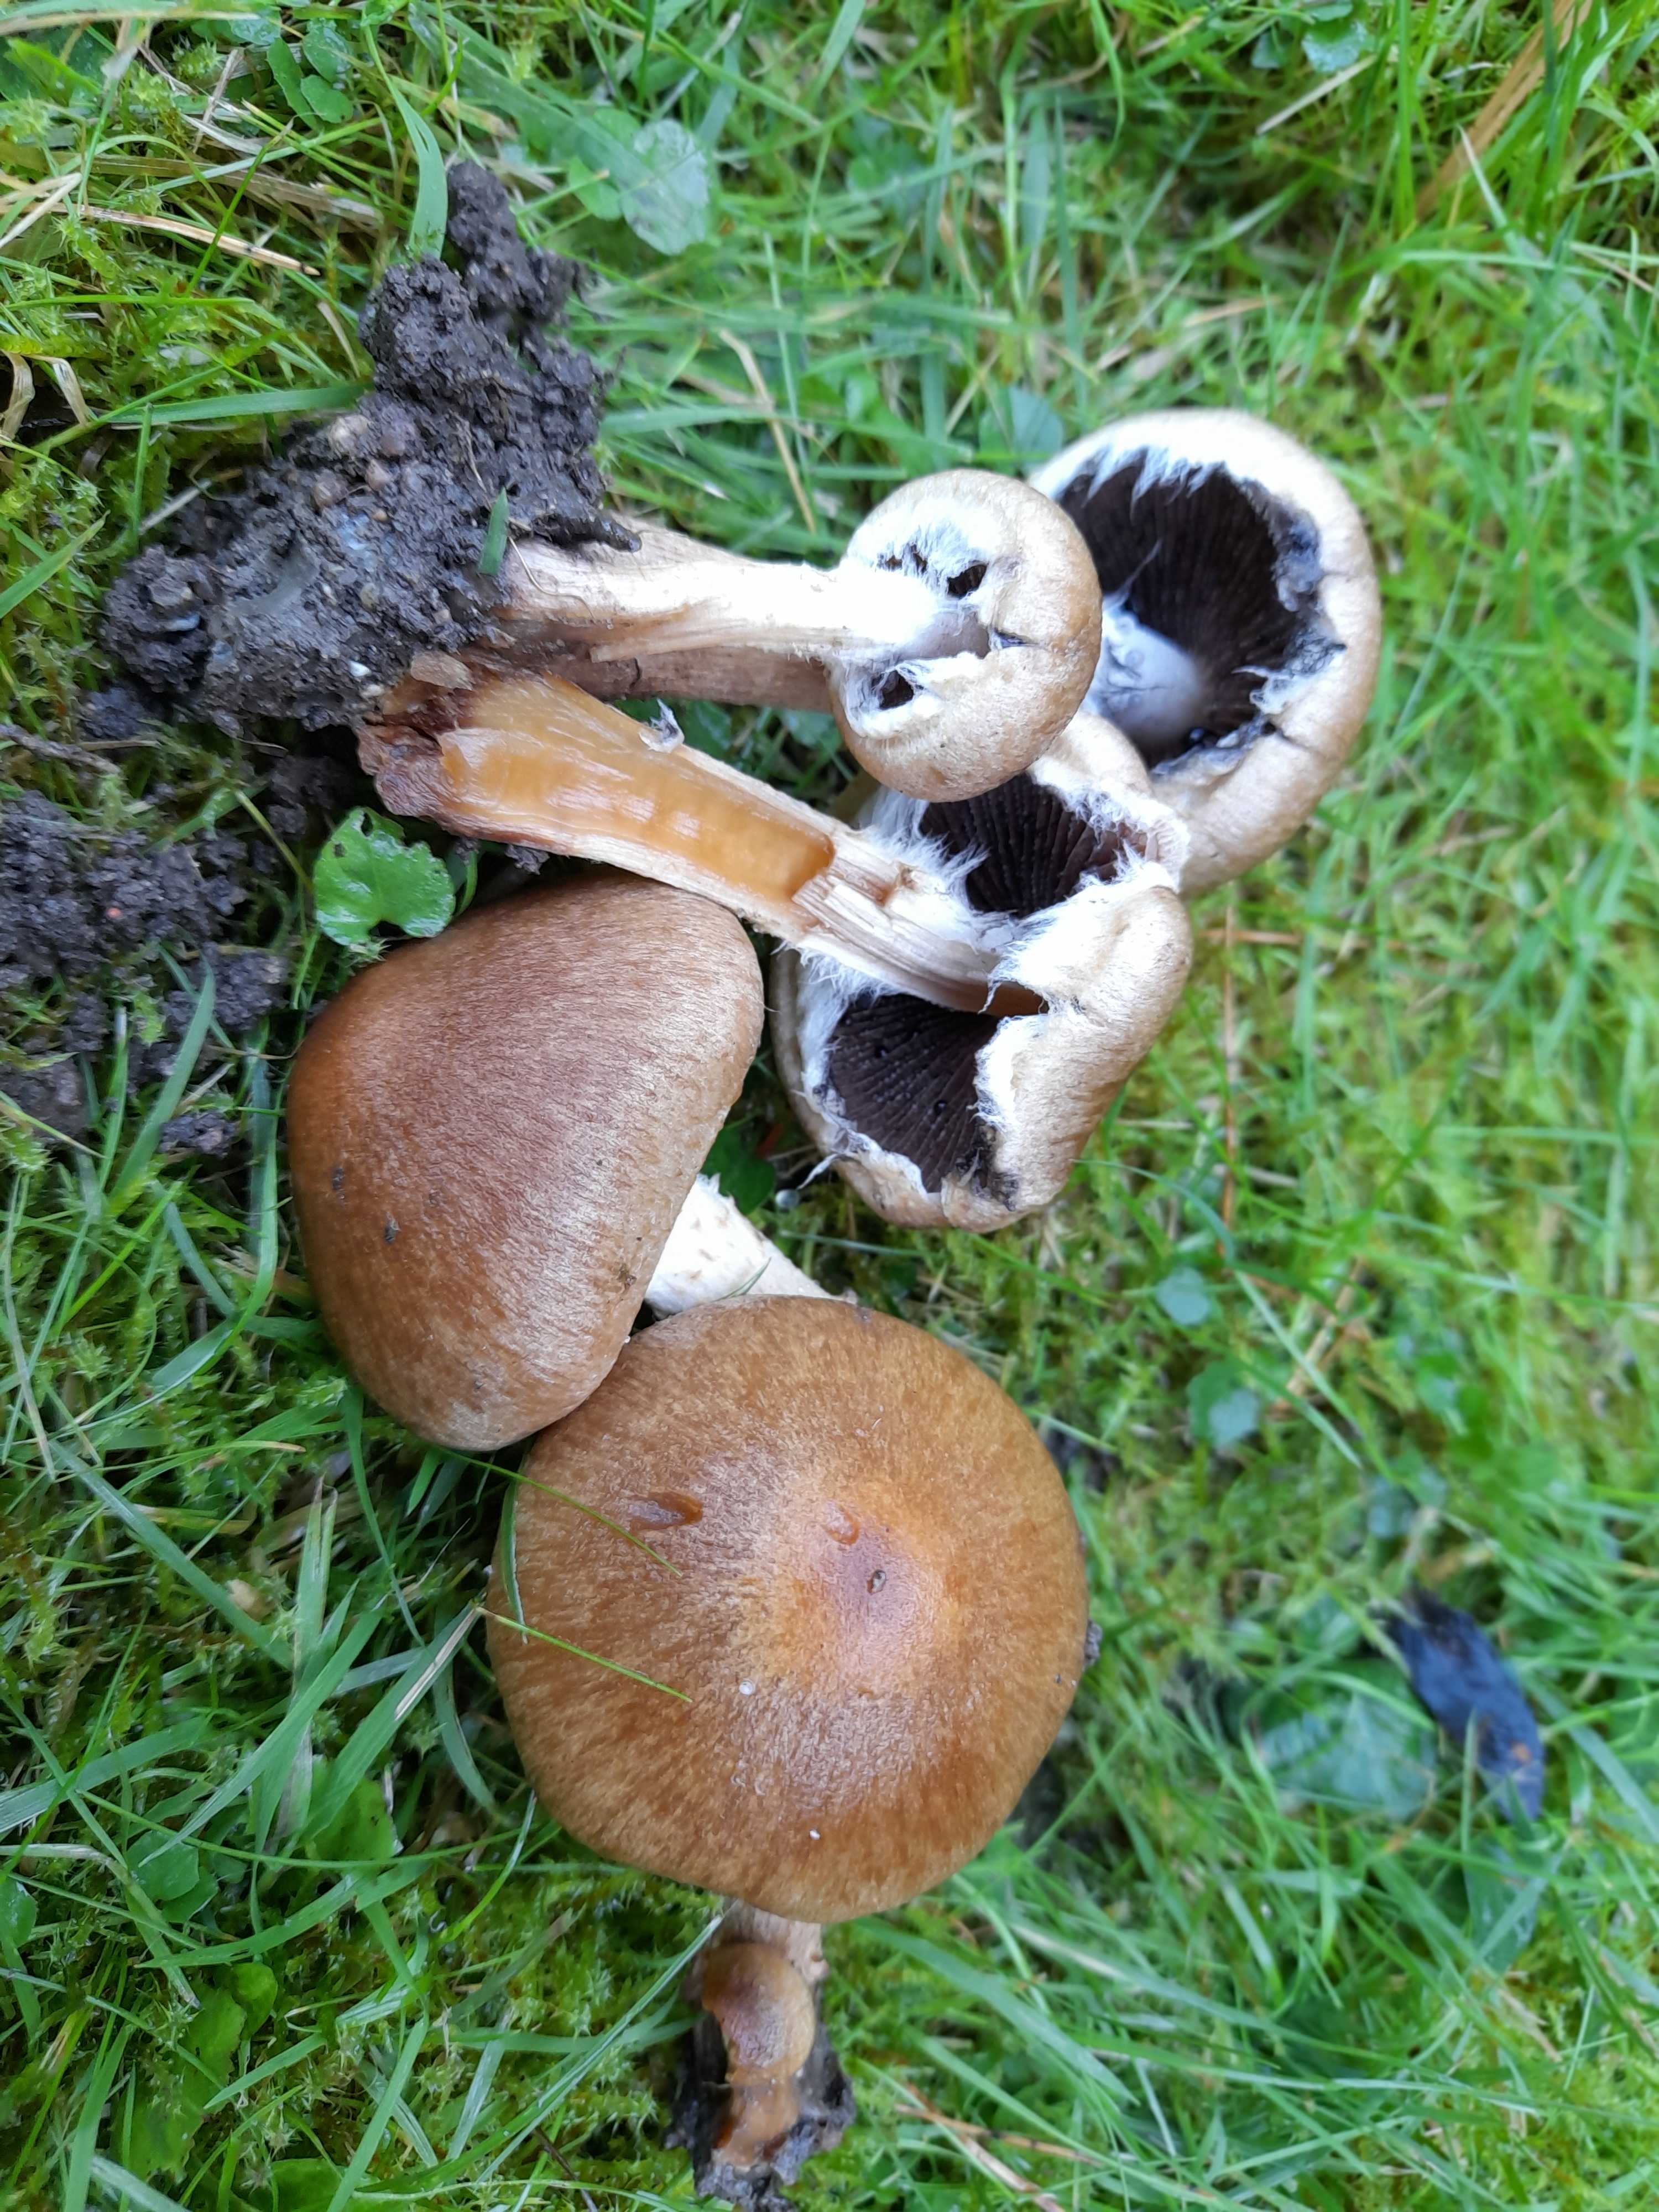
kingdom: Fungi
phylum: Basidiomycota
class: Agaricomycetes
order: Agaricales
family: Psathyrellaceae
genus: Lacrymaria
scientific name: Lacrymaria lacrymabunda
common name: grædende mørkhat
